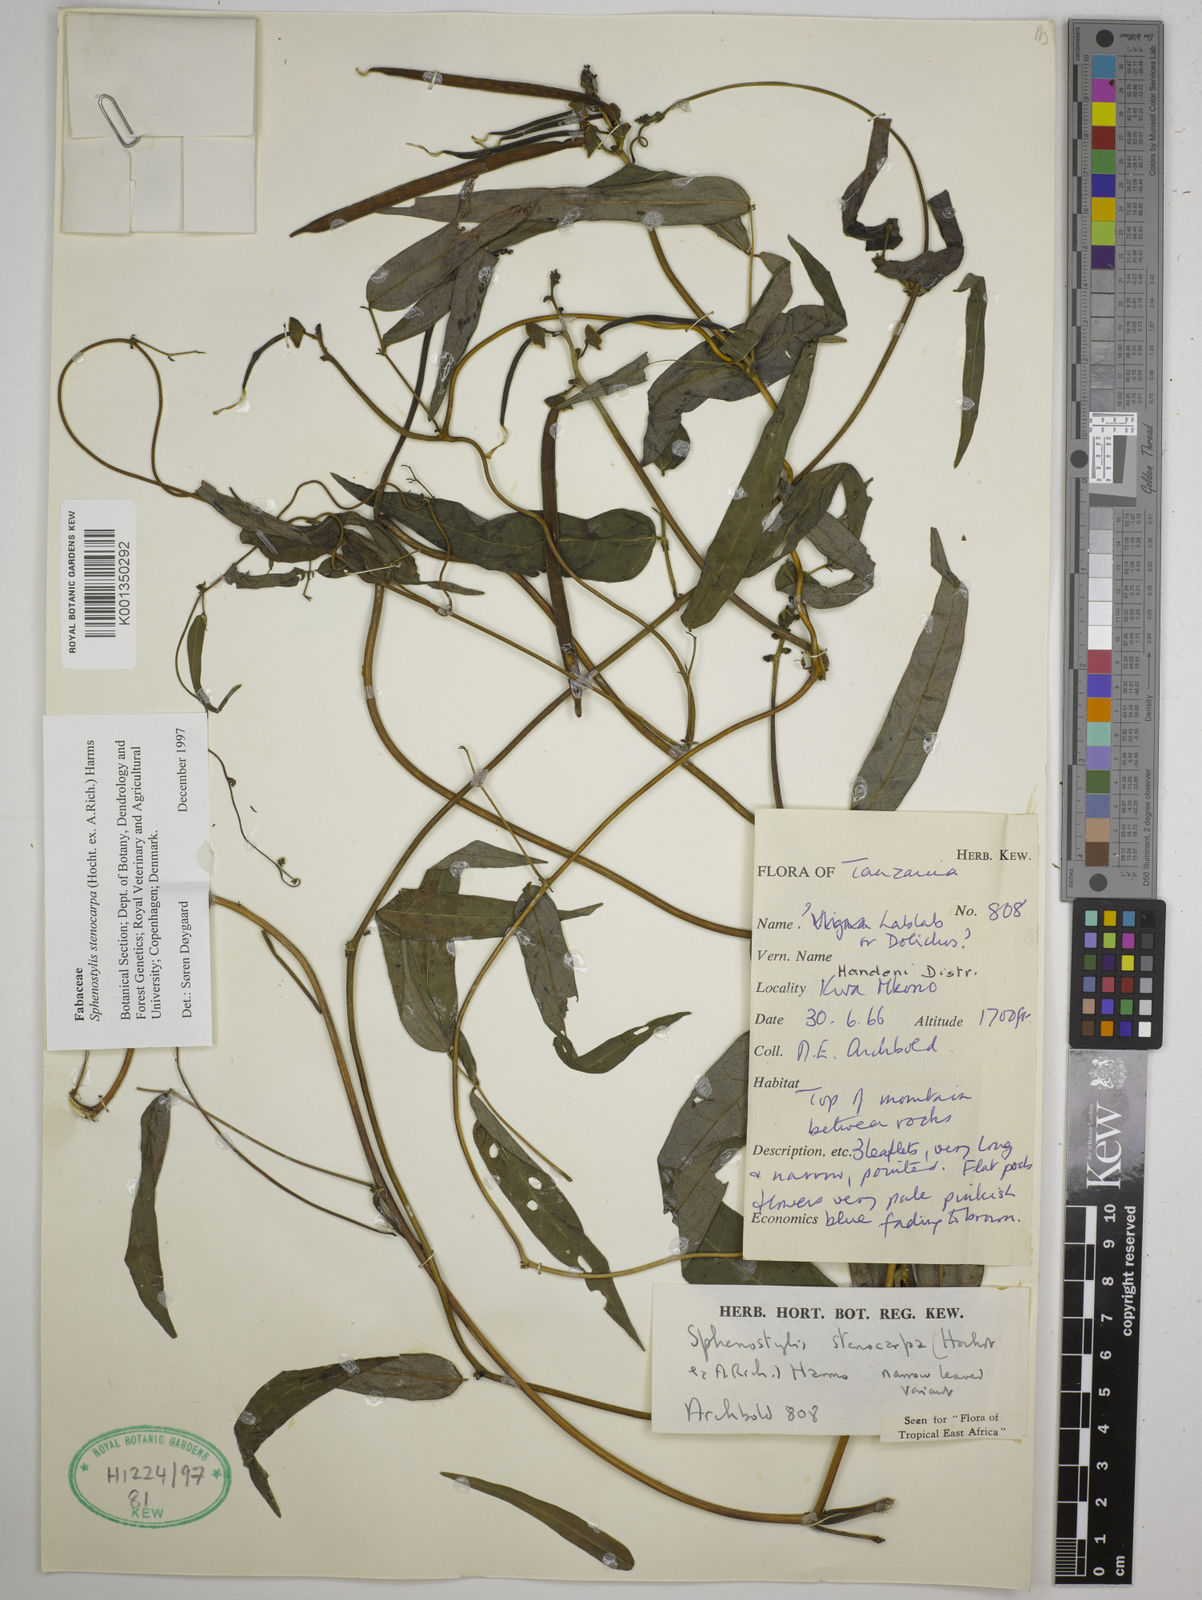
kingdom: Plantae
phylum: Tracheophyta
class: Magnoliopsida
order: Fabales
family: Fabaceae
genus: Sphenostylis
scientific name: Sphenostylis stenocarpa
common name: Yam-pea
